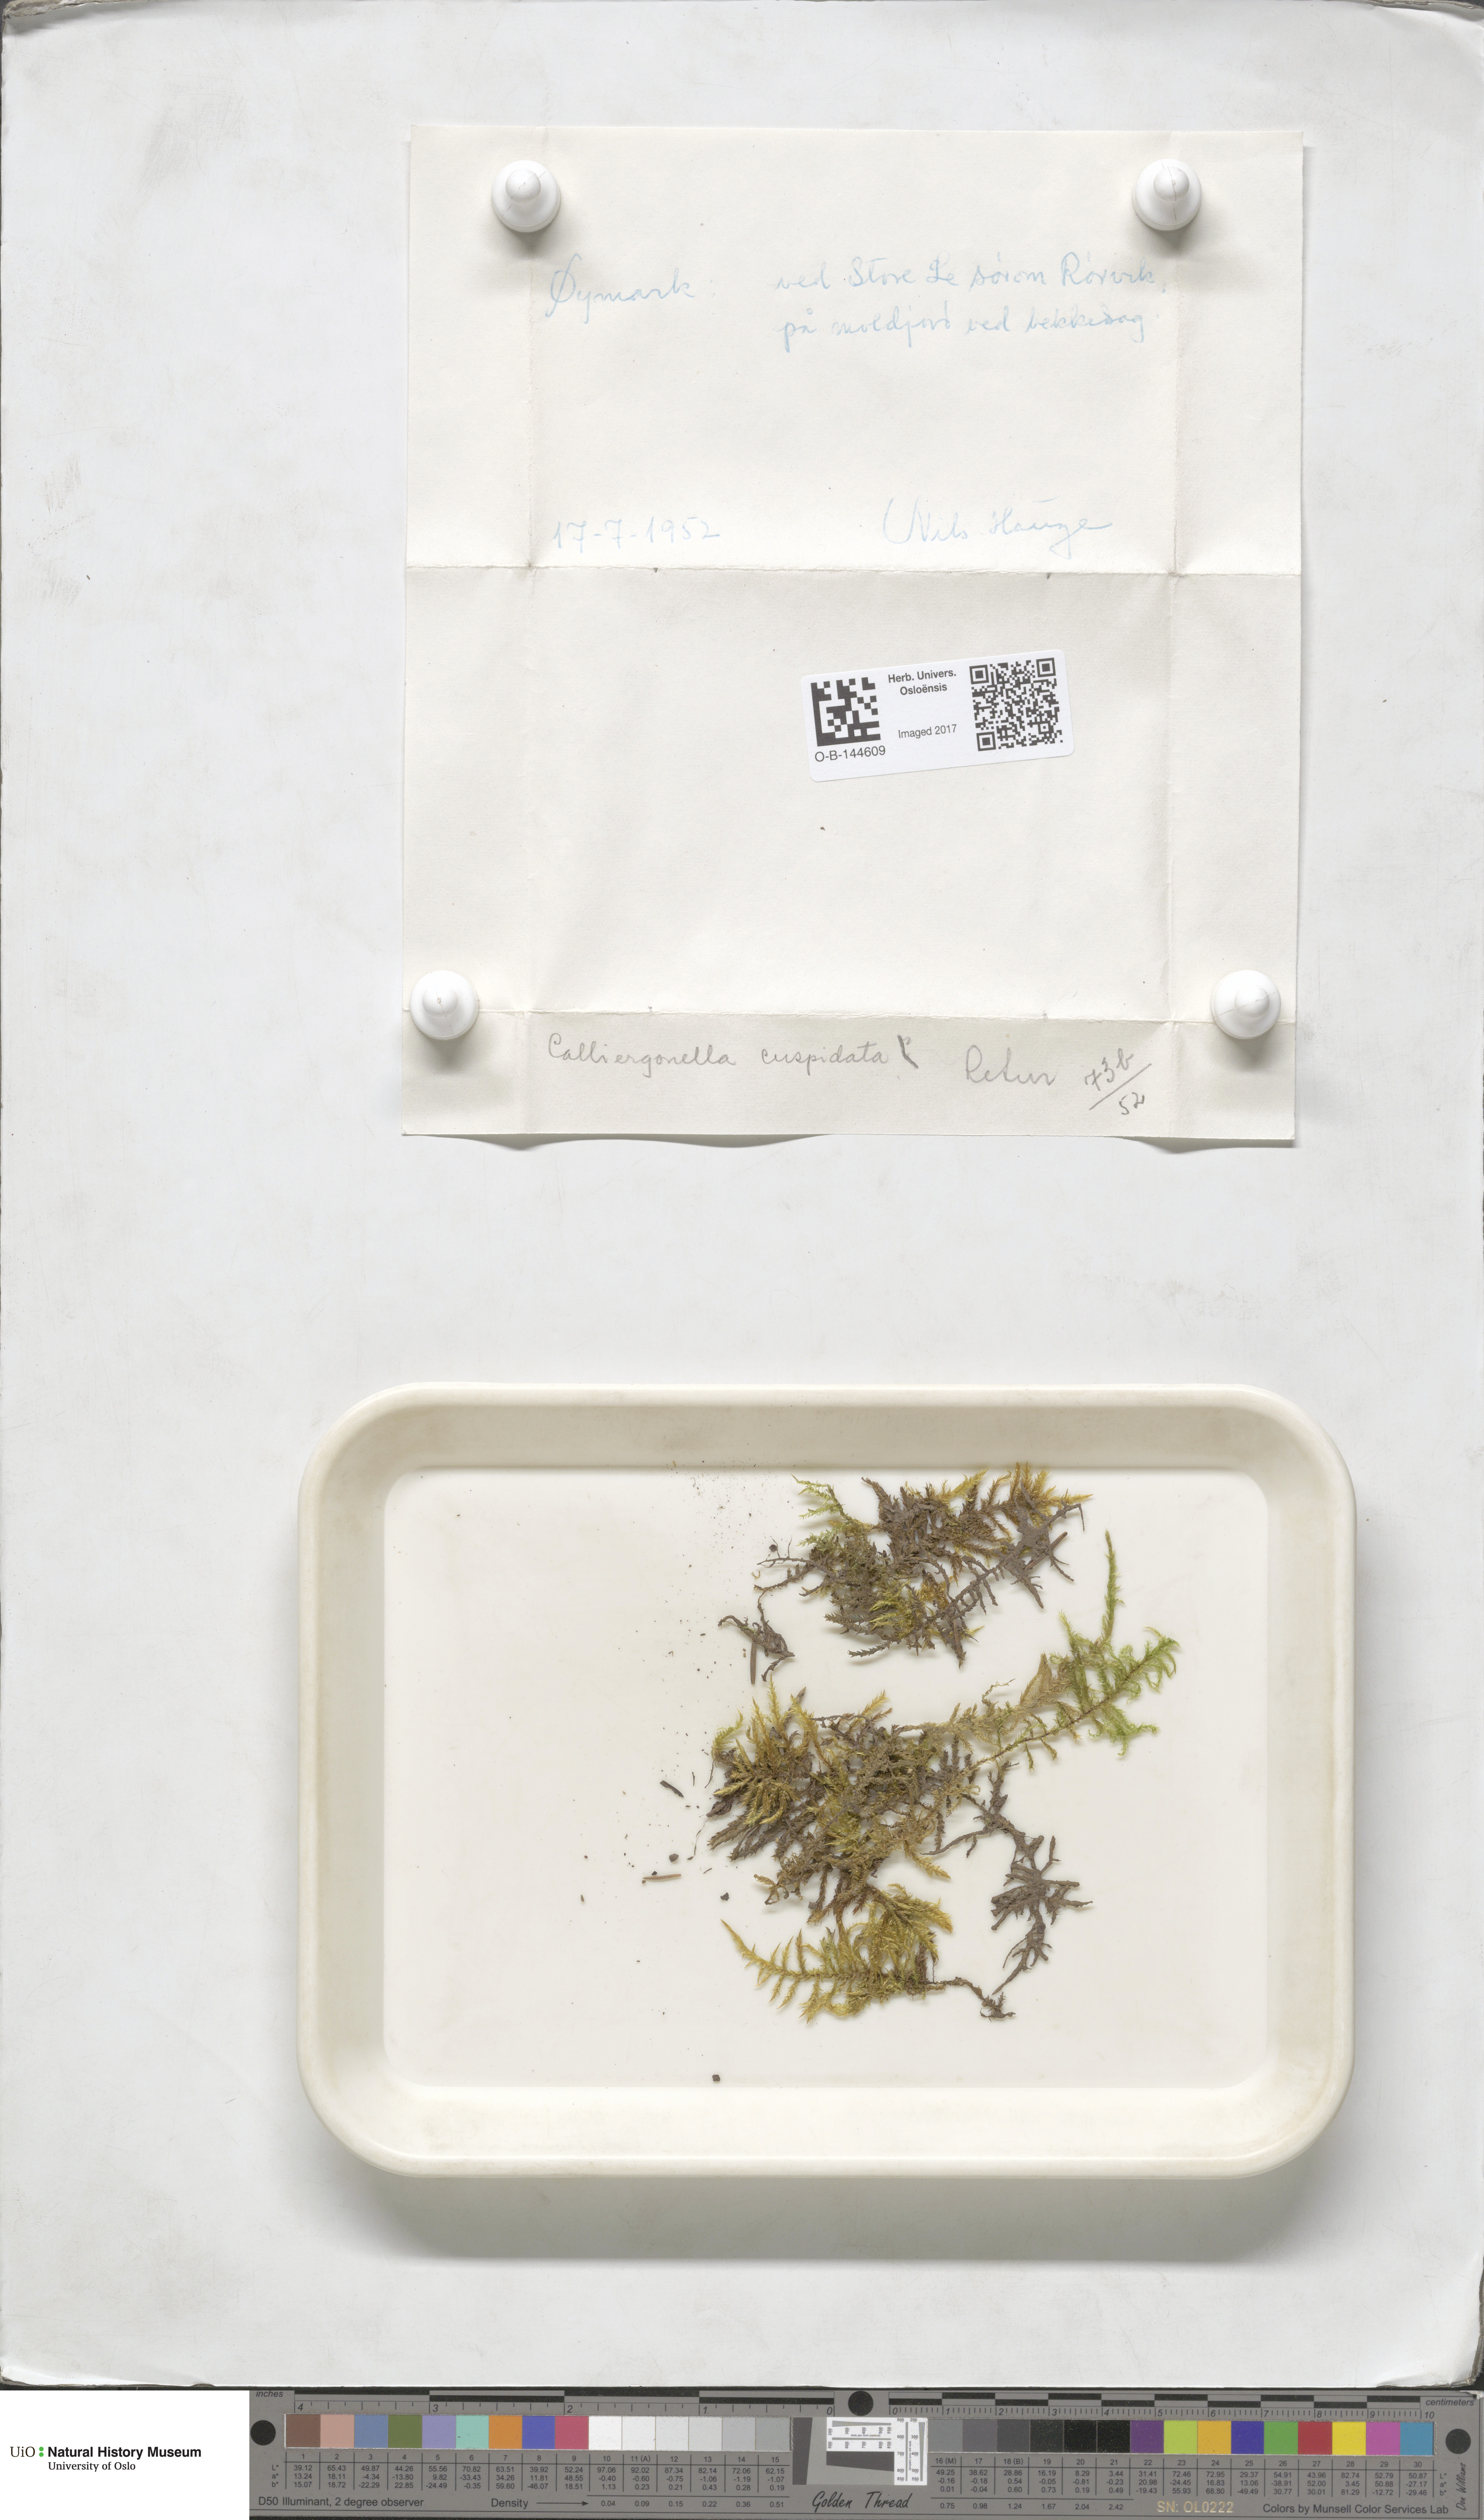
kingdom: Plantae
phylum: Bryophyta
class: Bryopsida
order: Hypnales
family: Pylaisiaceae
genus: Calliergonella
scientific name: Calliergonella cuspidata
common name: Common large wetland moss
